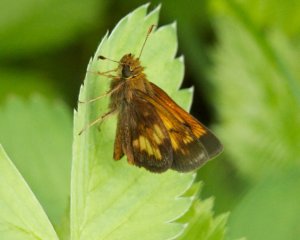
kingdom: Animalia
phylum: Arthropoda
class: Insecta
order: Lepidoptera
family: Hesperiidae
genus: Lon
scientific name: Lon hobomok
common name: Hobomok Skipper
